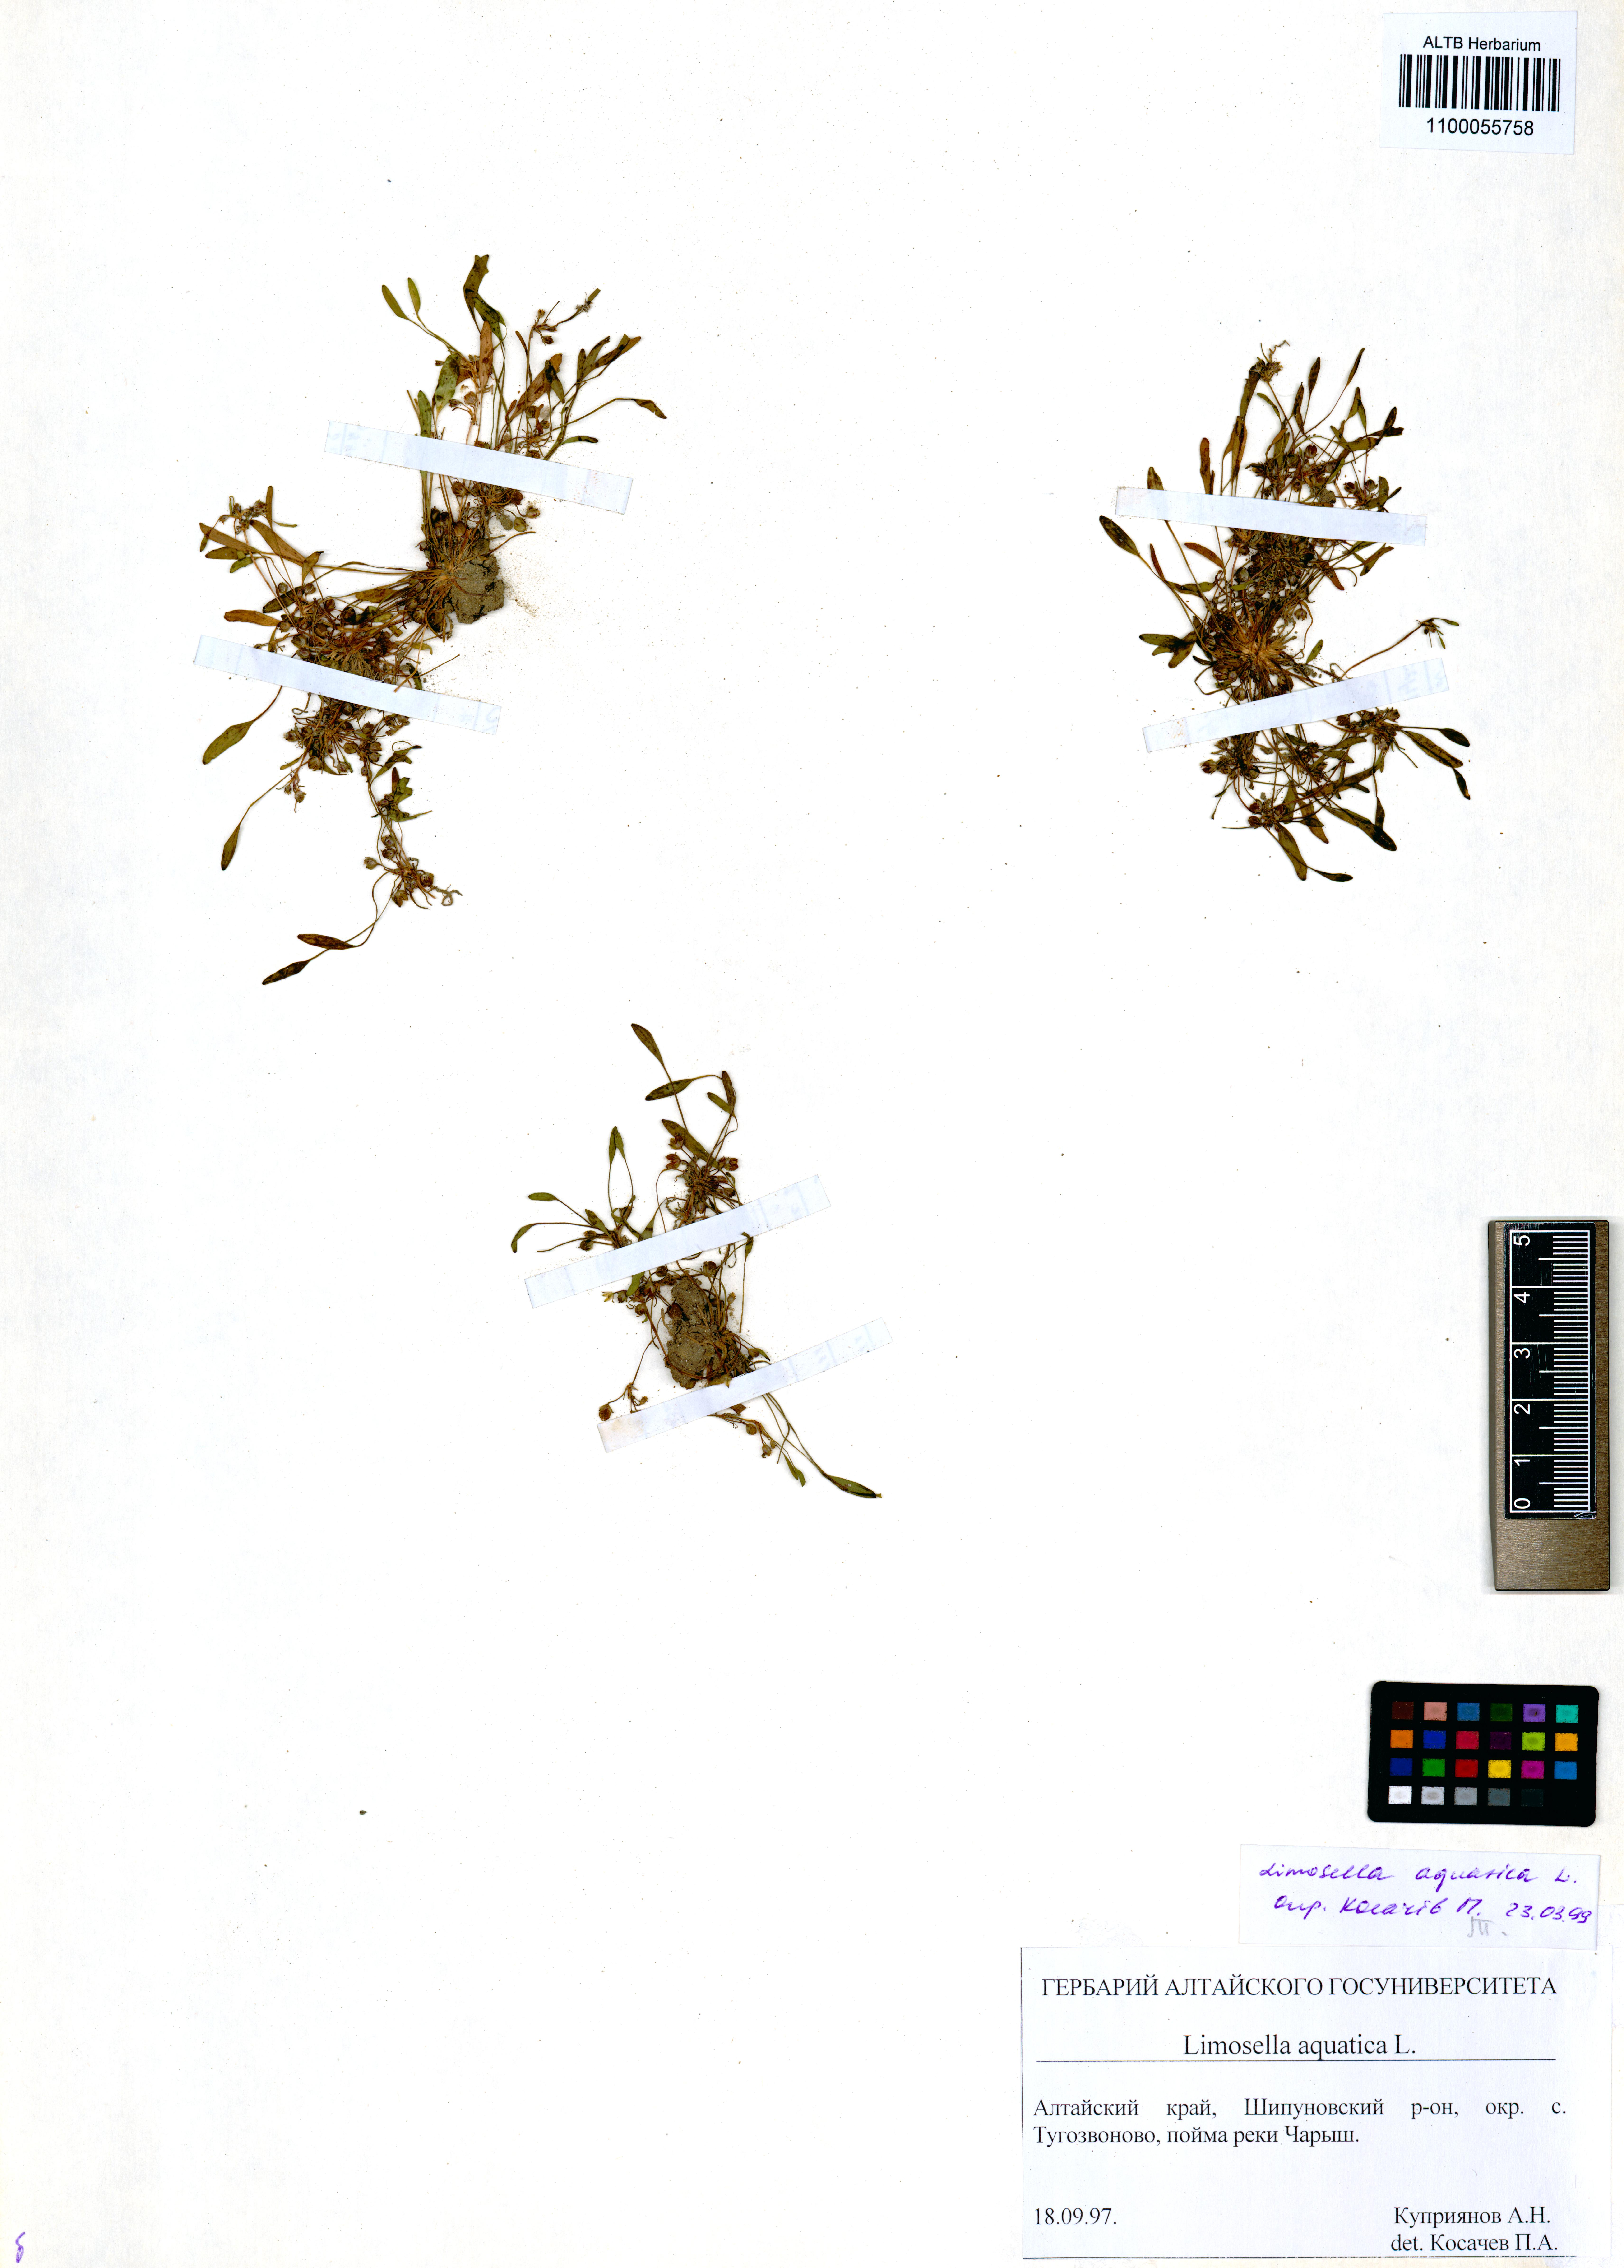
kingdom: Plantae
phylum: Tracheophyta
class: Magnoliopsida
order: Lamiales
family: Scrophulariaceae
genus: Limosella
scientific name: Limosella aquatica
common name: Mudwort
